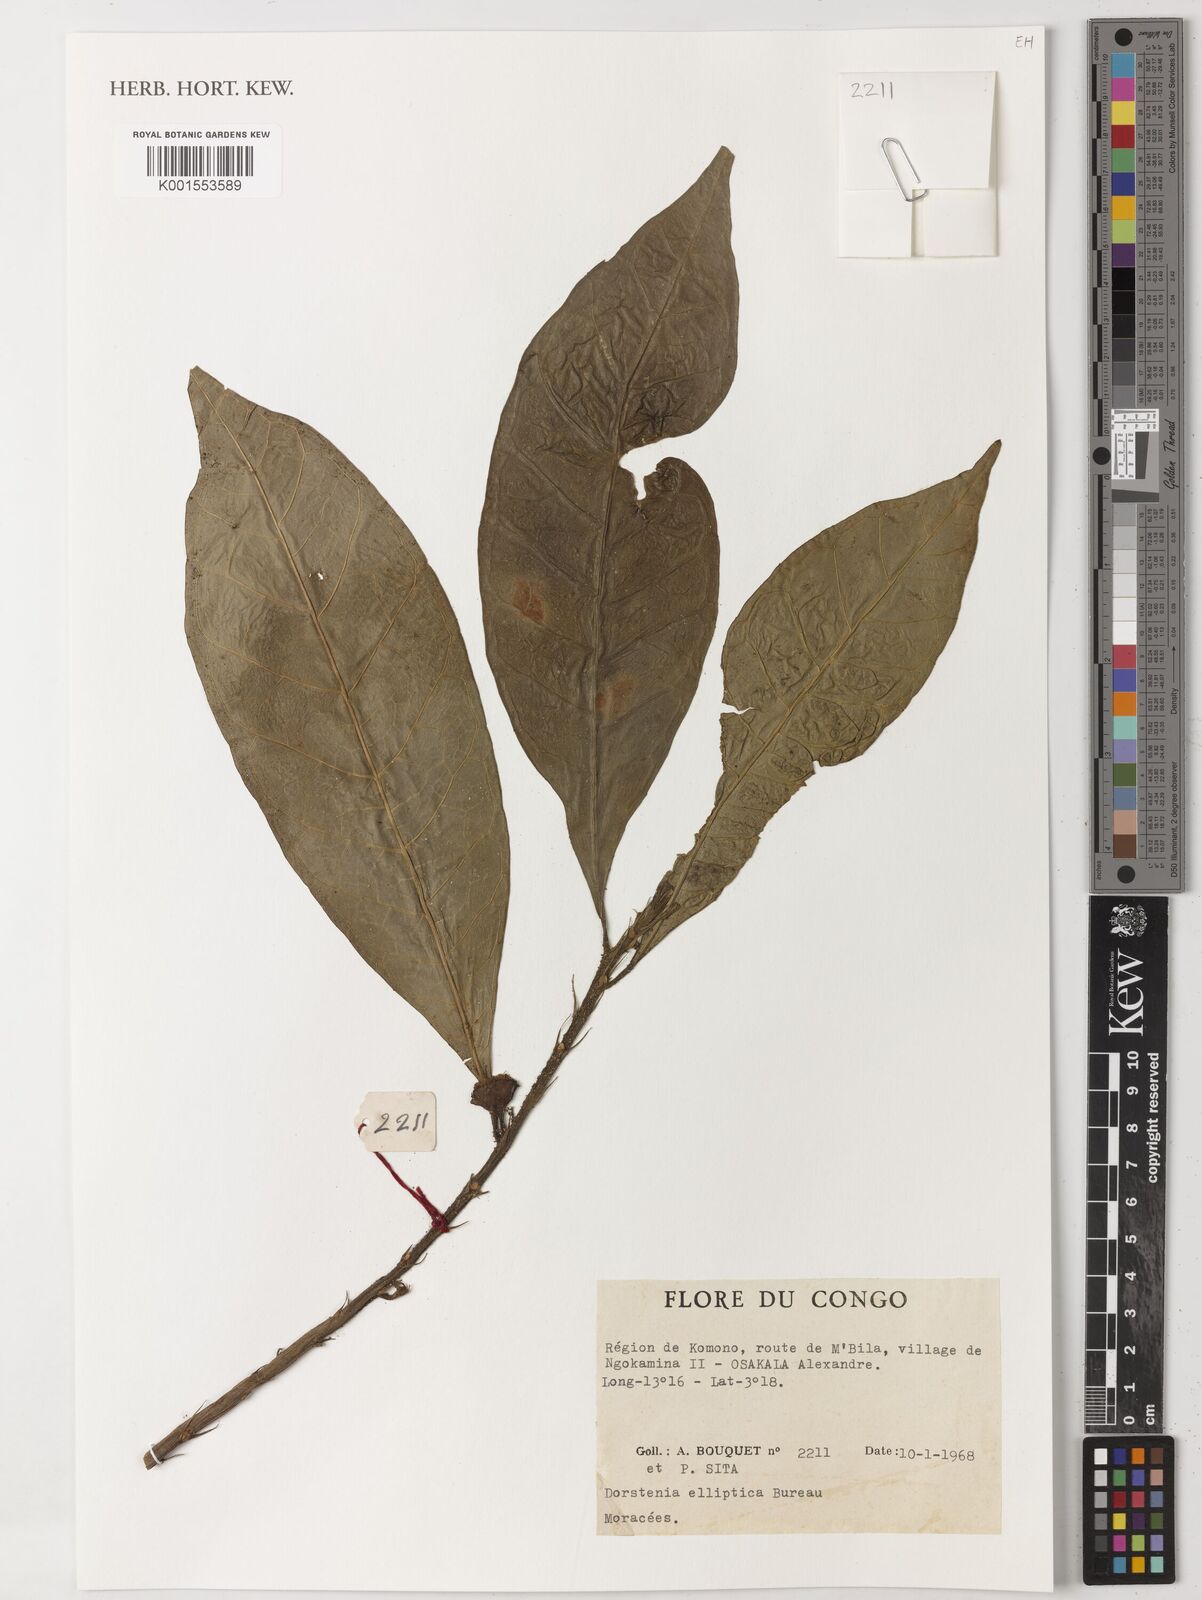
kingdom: Plantae
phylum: Tracheophyta
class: Magnoliopsida
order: Rosales
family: Moraceae
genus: Dorstenia
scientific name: Dorstenia elliptica
